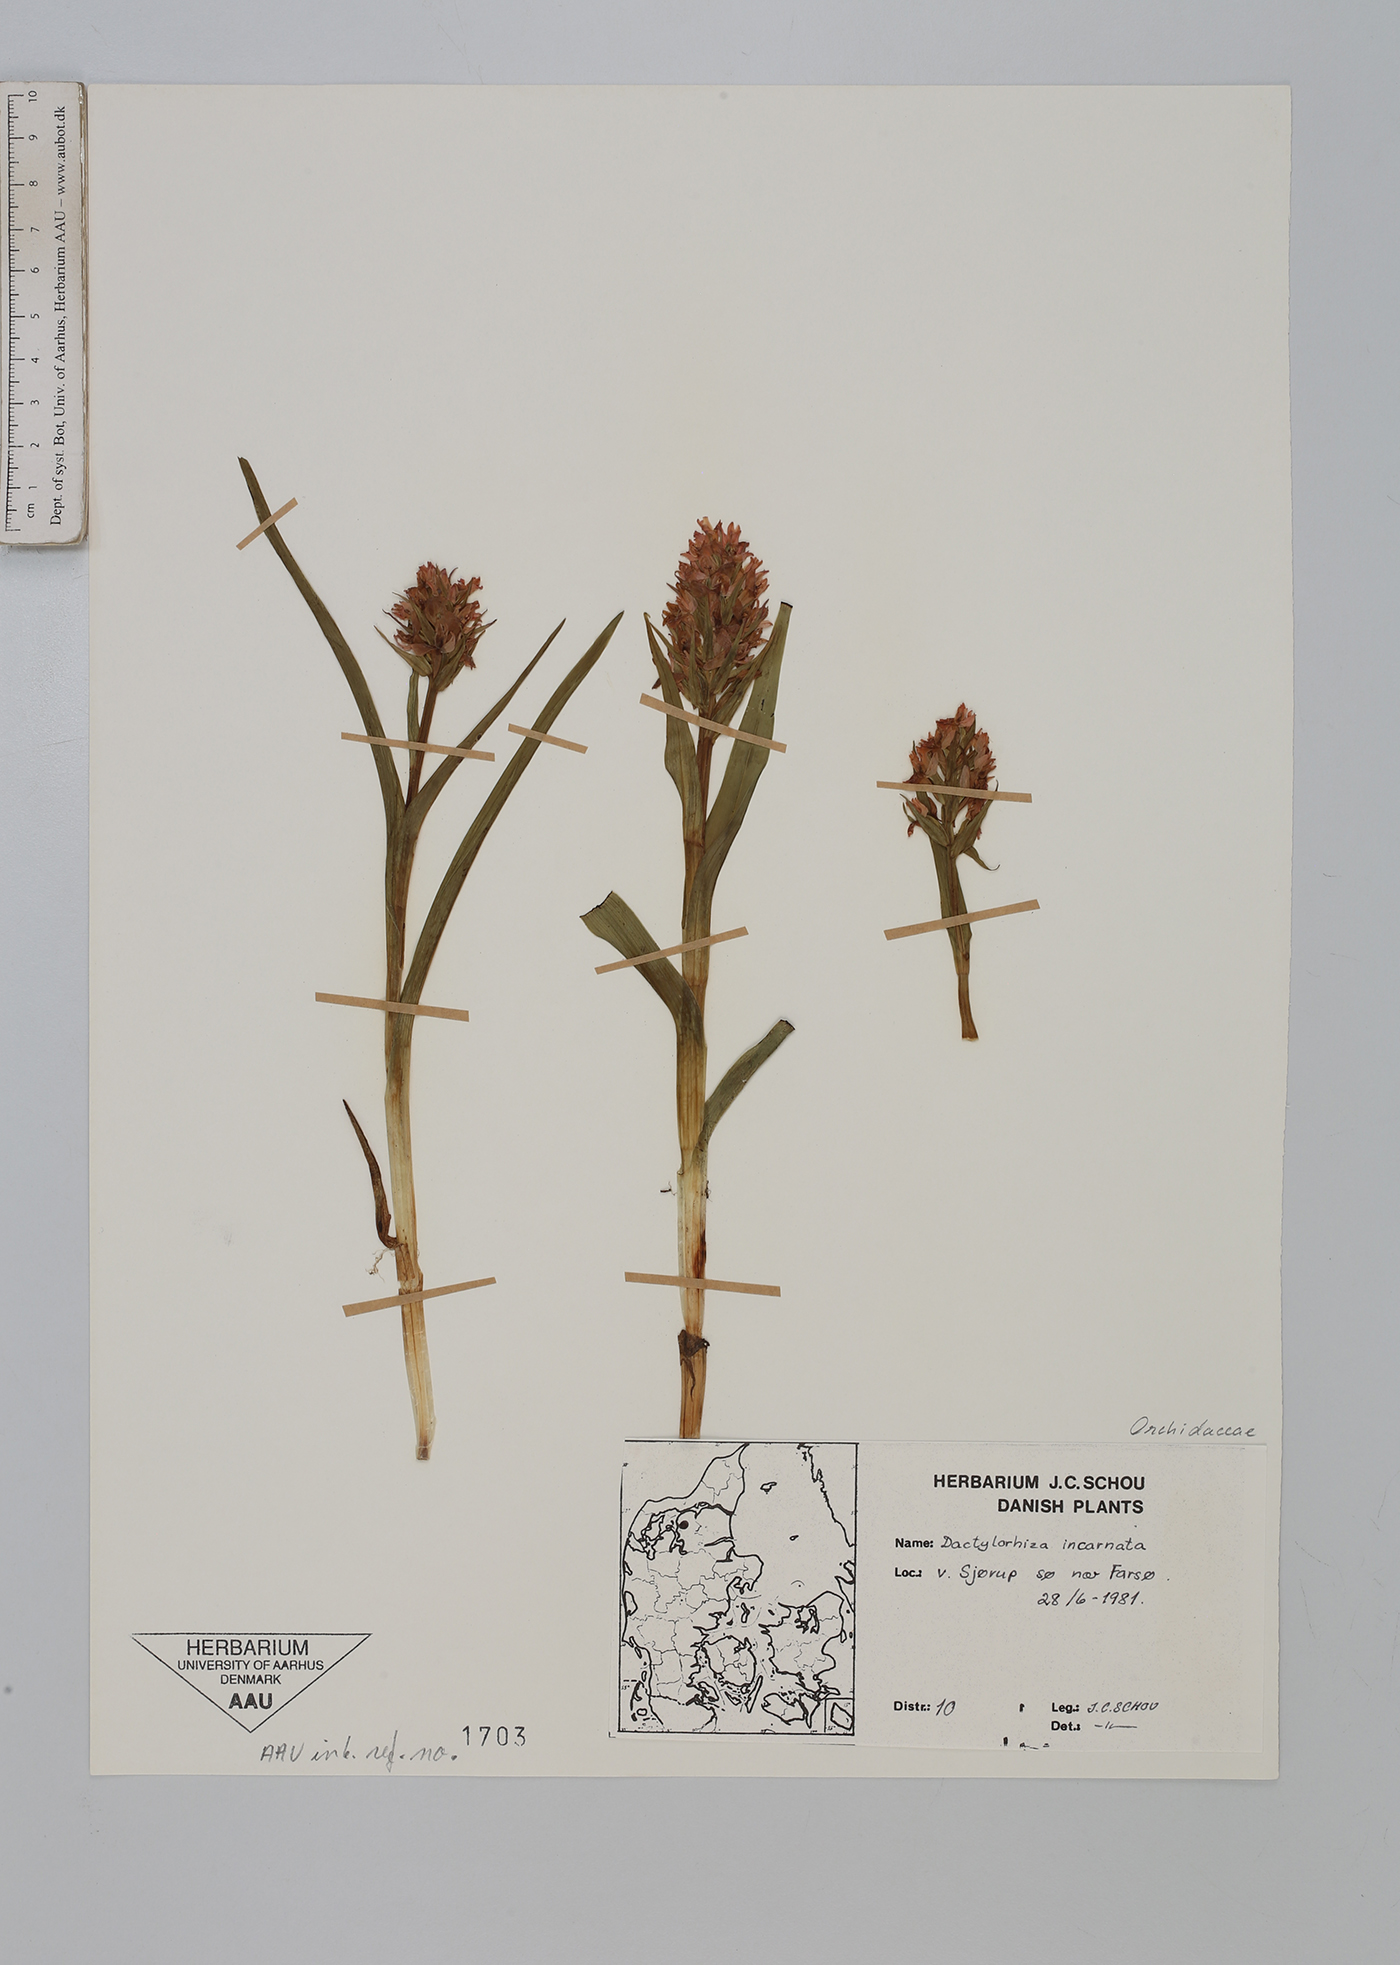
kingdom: Plantae
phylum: Tracheophyta
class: Liliopsida
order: Asparagales
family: Orchidaceae
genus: Dactylorhiza
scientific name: Dactylorhiza incarnata
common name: Early marsh-orchid
